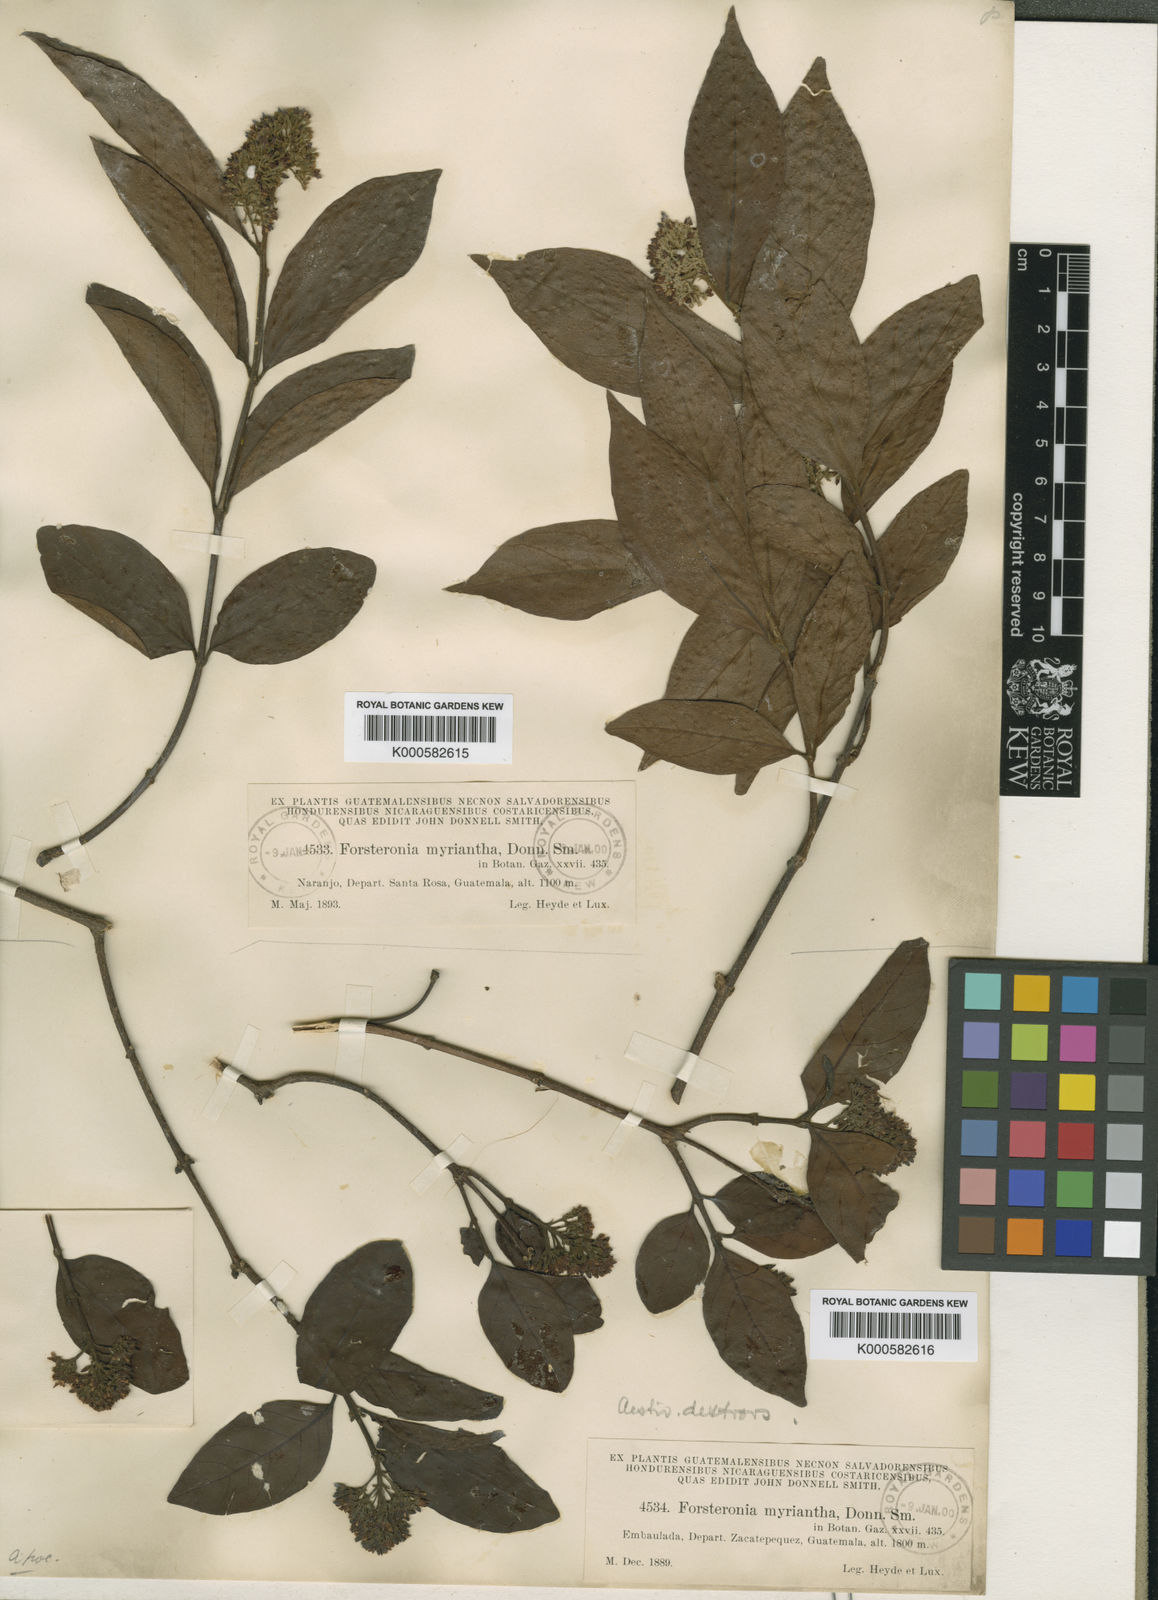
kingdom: Plantae
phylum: Tracheophyta
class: Magnoliopsida
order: Gentianales
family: Apocynaceae
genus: Forsteronia
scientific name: Forsteronia myriantha
